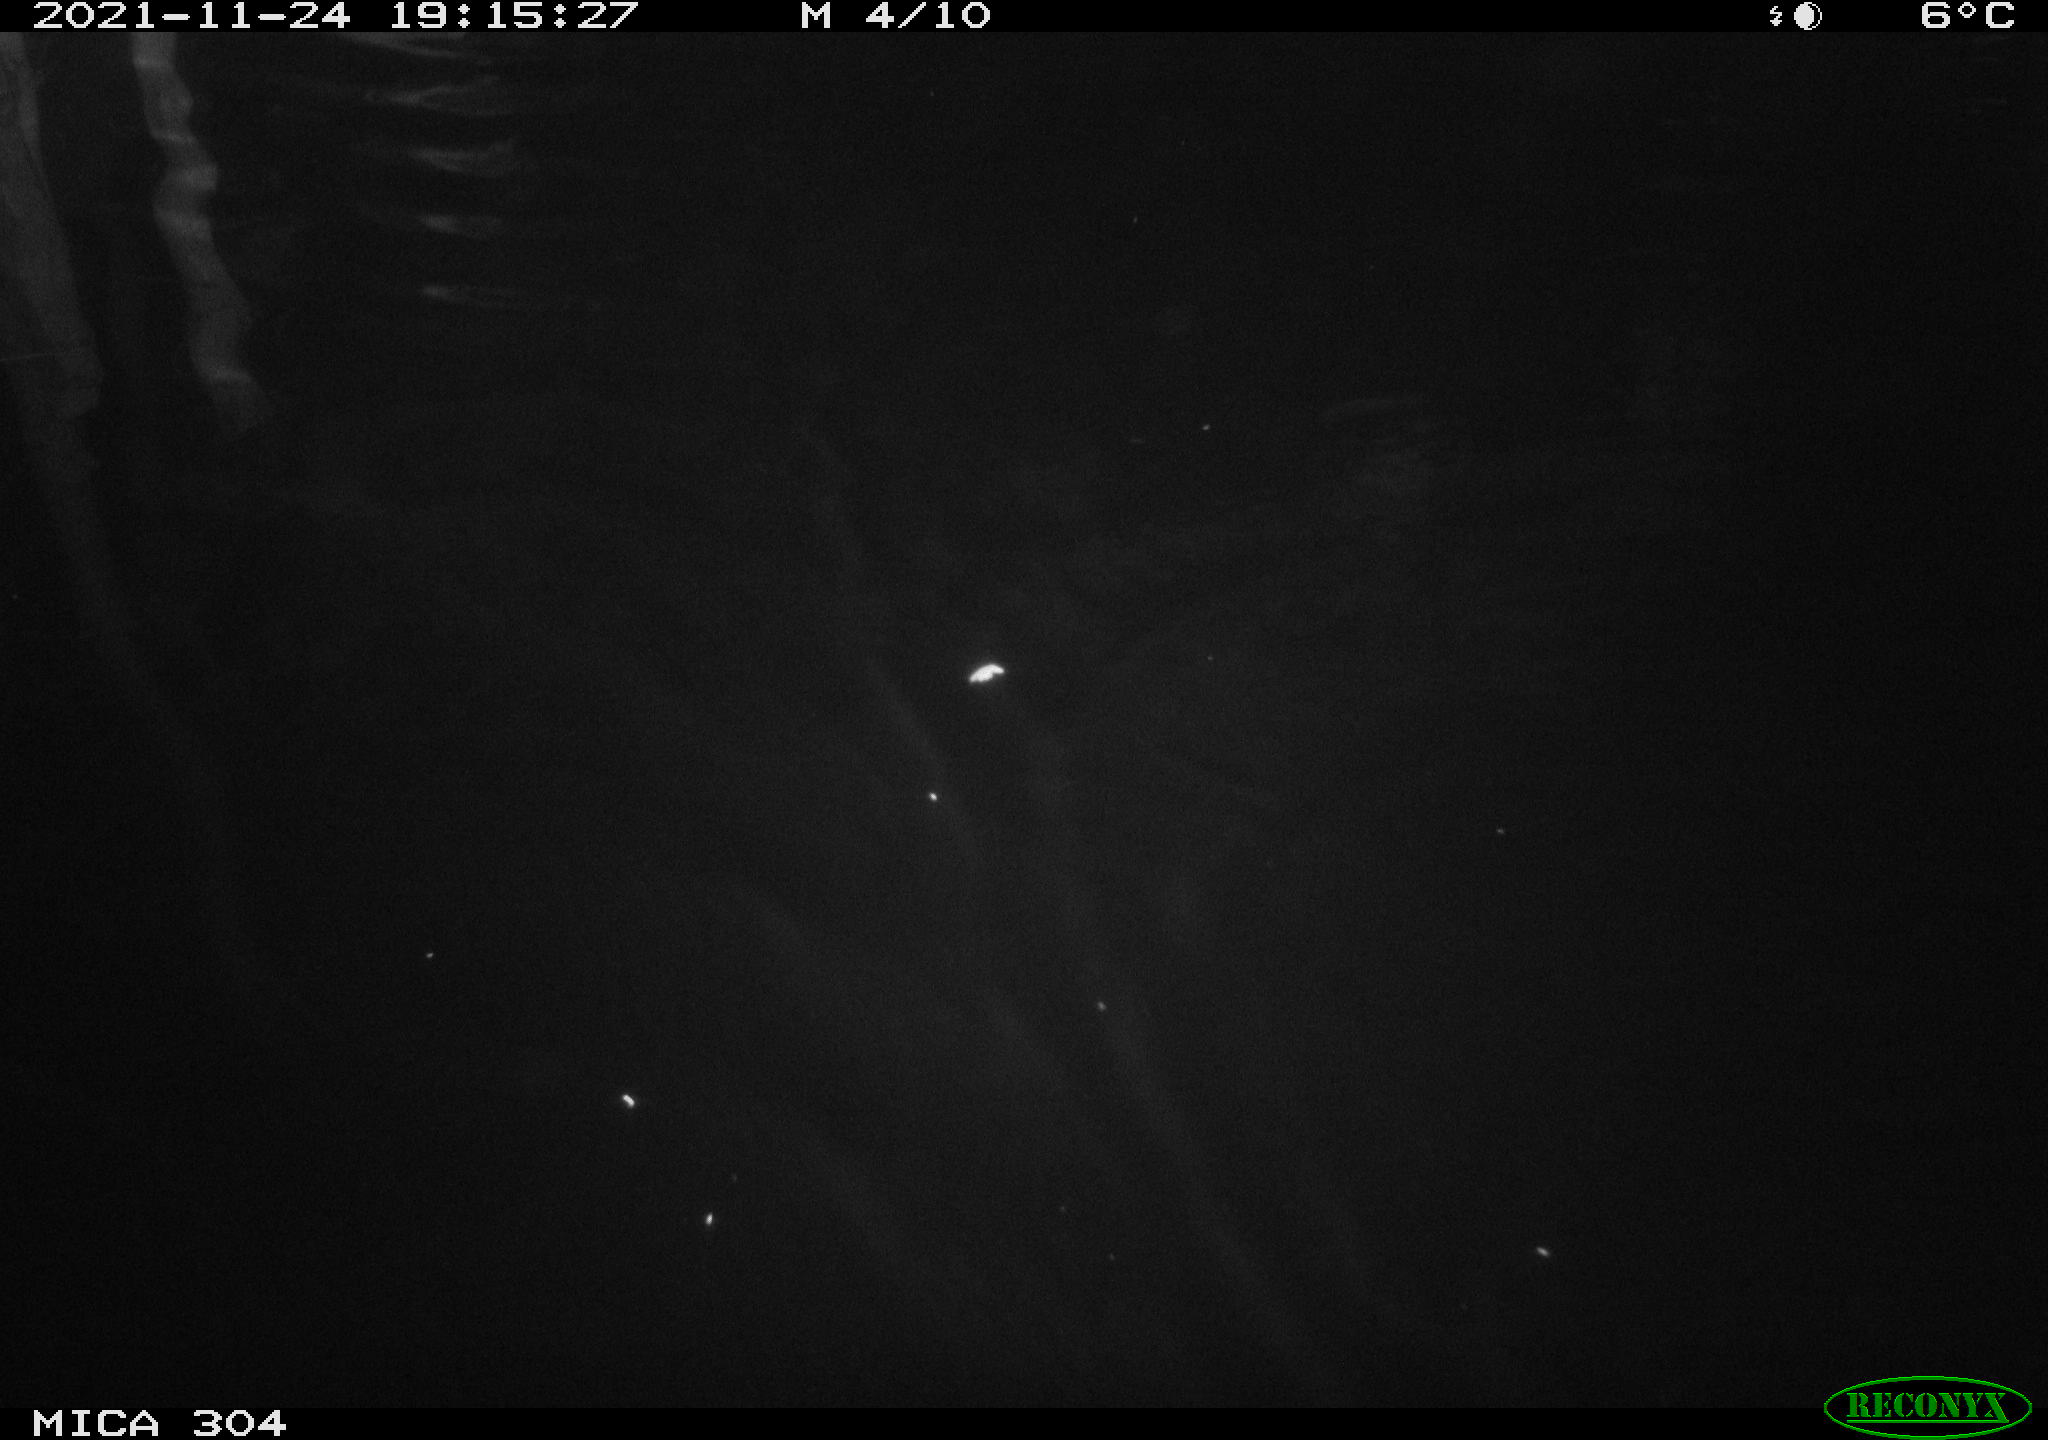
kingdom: Animalia
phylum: Chordata
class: Mammalia
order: Rodentia
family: Cricetidae
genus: Ondatra
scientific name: Ondatra zibethicus
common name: Muskrat
